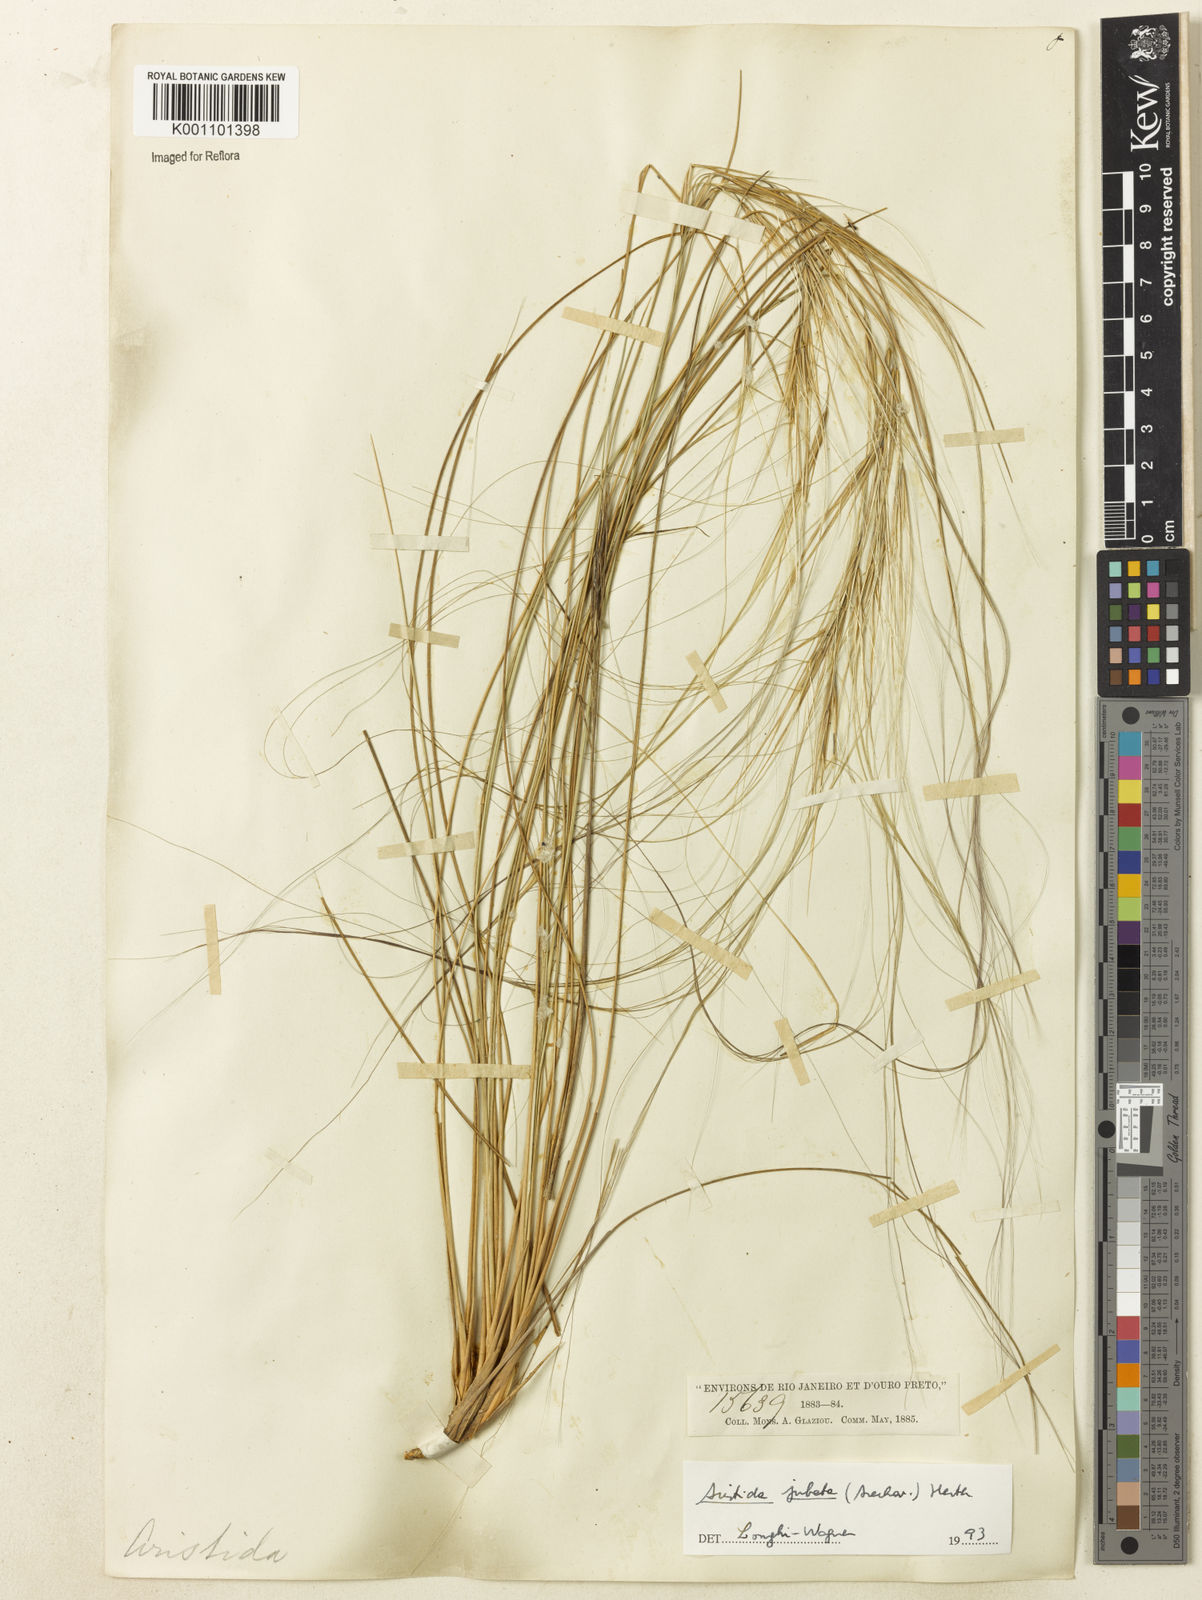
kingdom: Plantae
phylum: Tracheophyta
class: Liliopsida
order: Poales
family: Poaceae
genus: Aristida
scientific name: Aristida jubata
